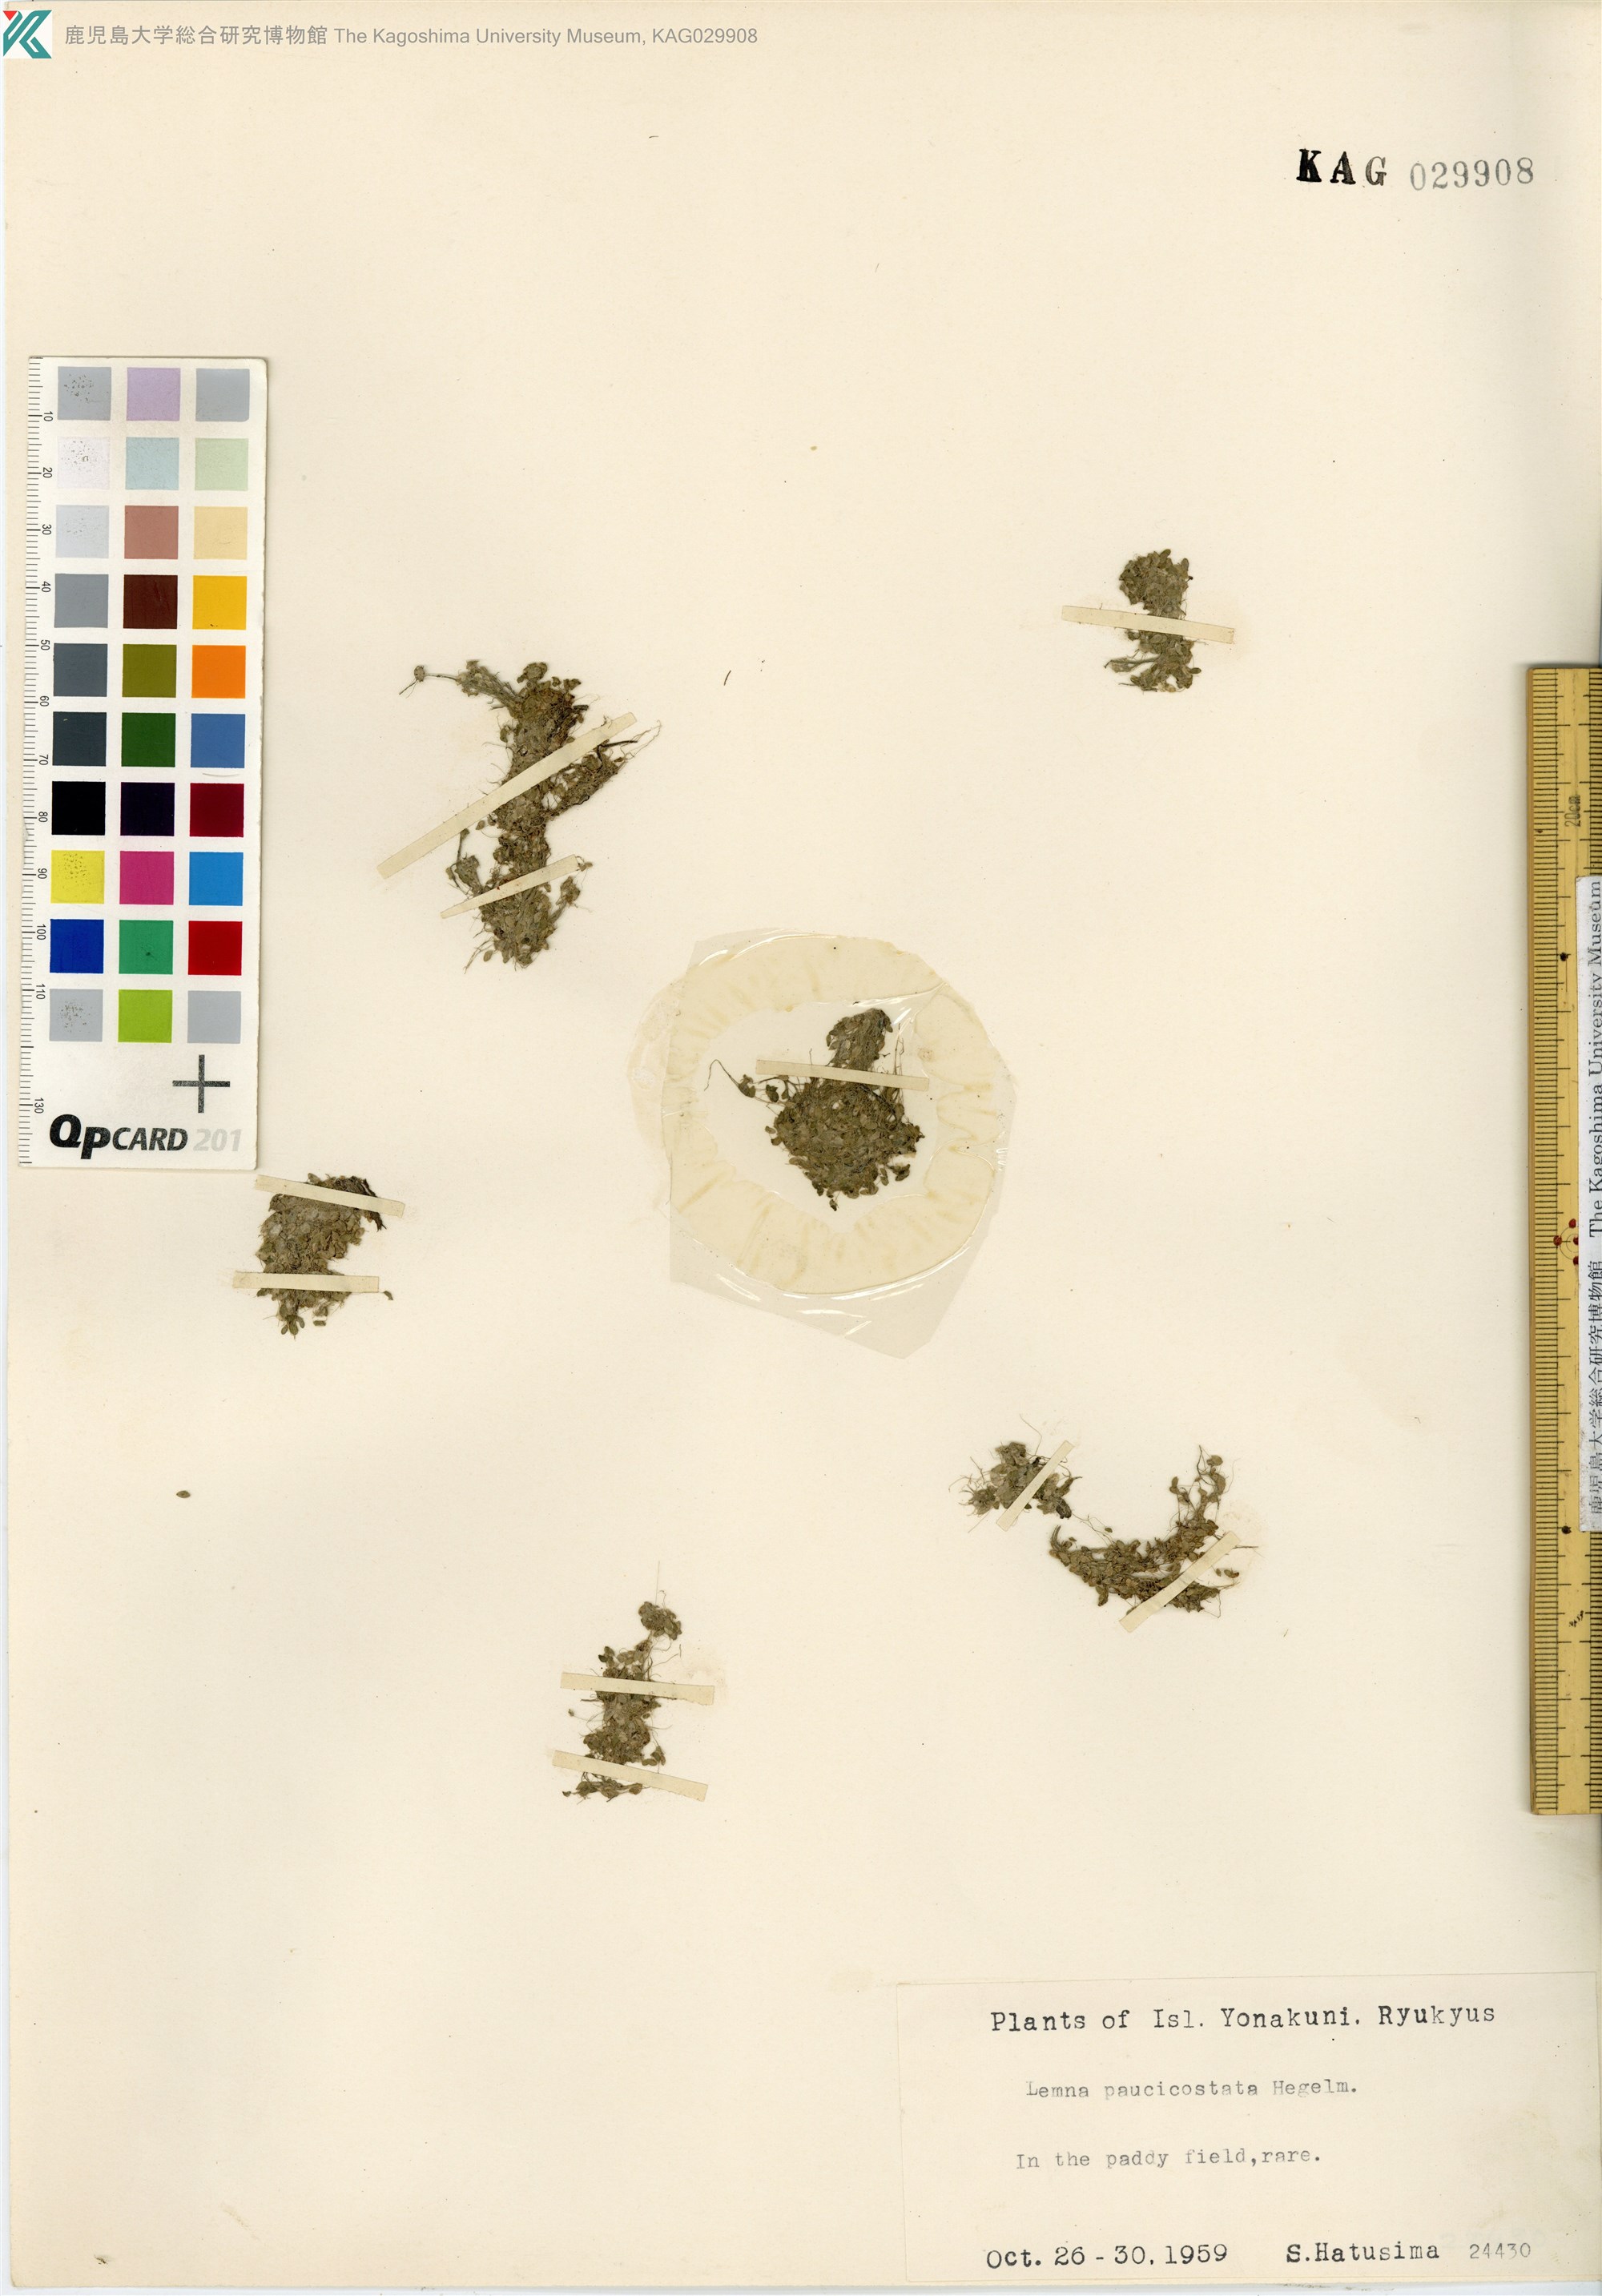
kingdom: Plantae
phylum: Tracheophyta
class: Liliopsida
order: Alismatales
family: Araceae
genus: Lemna
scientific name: Lemna aequinoctialis
